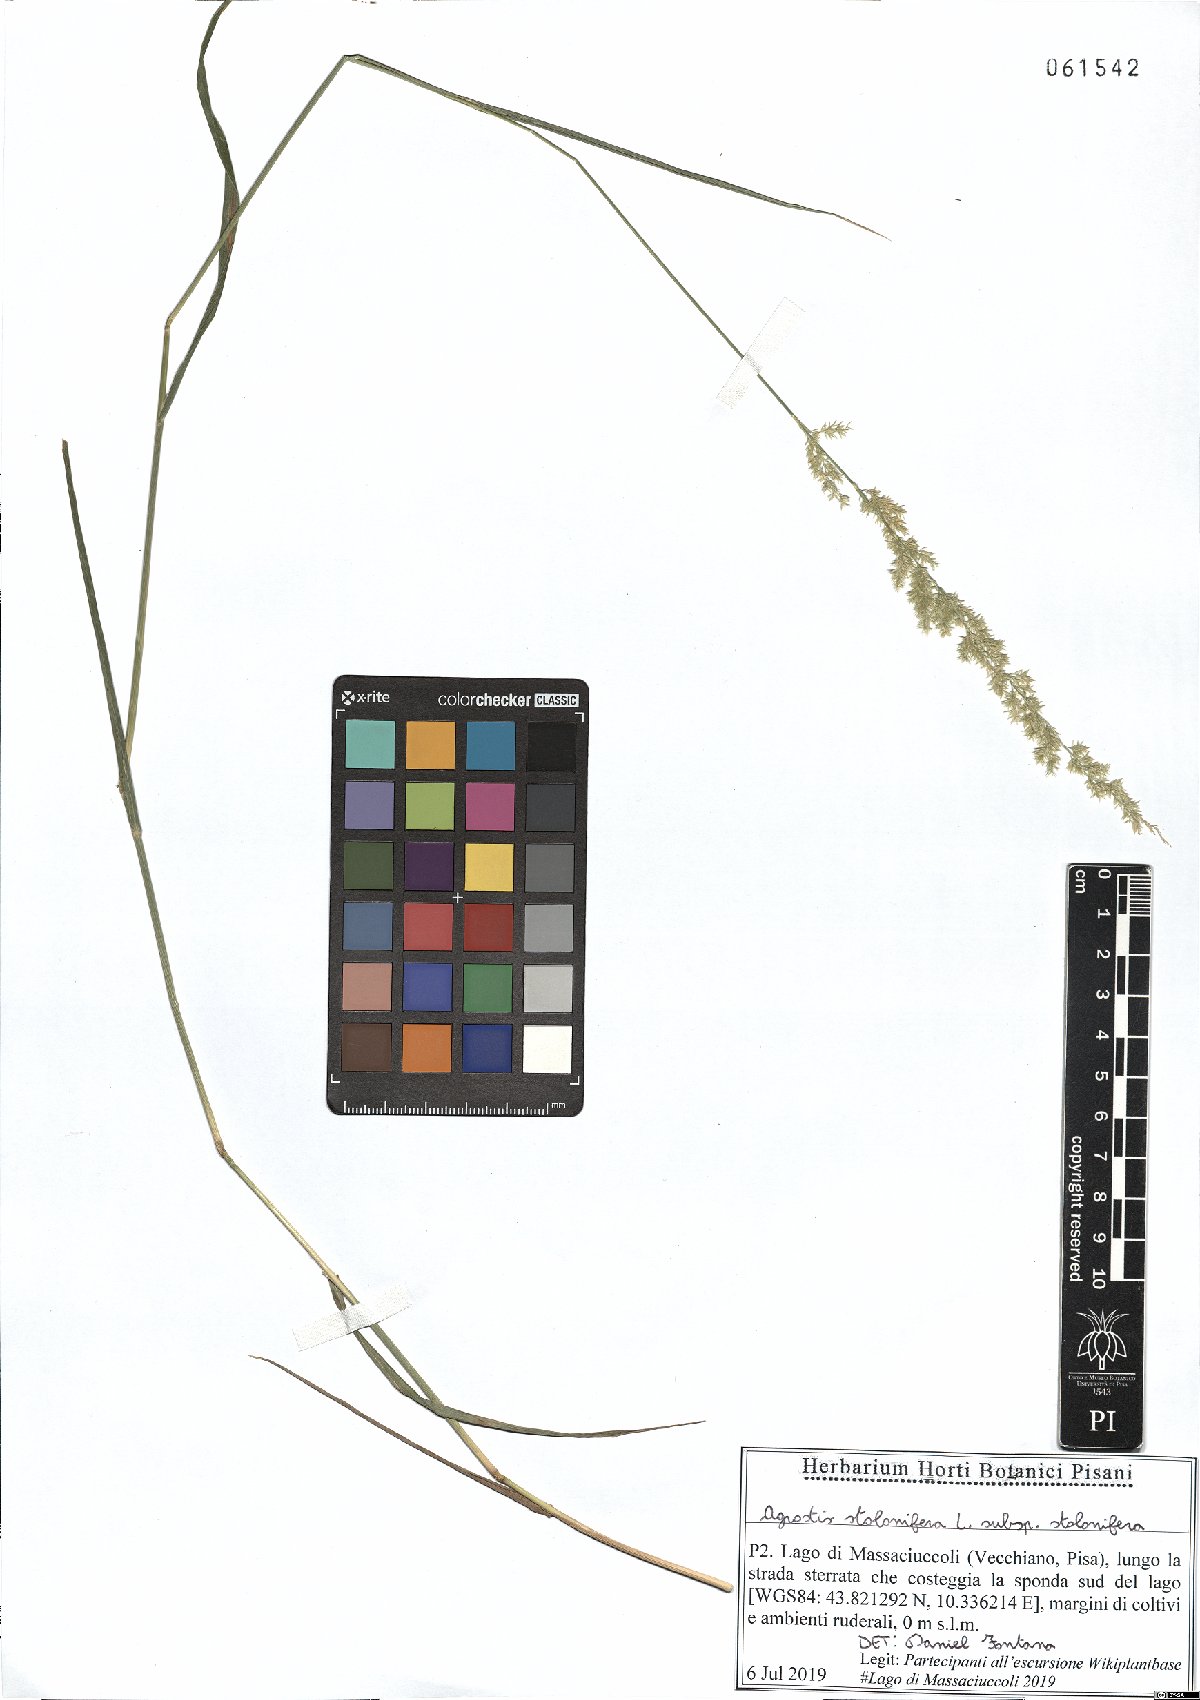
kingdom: Plantae
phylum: Tracheophyta
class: Liliopsida
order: Poales
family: Poaceae
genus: Agrostis
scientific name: Agrostis stolonifera
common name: Creeping bentgrass
